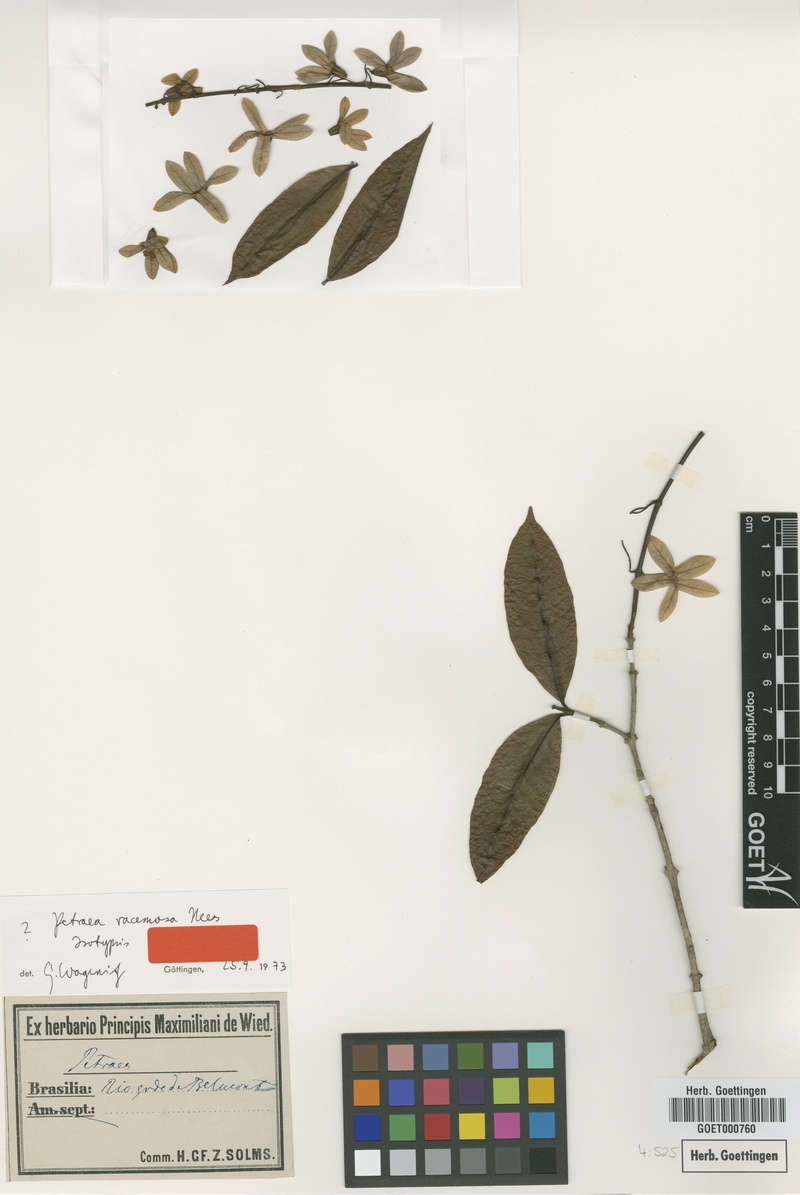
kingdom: Plantae
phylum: Tracheophyta
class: Magnoliopsida
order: Lamiales
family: Verbenaceae
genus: Petraea
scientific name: Petraea racemosa
